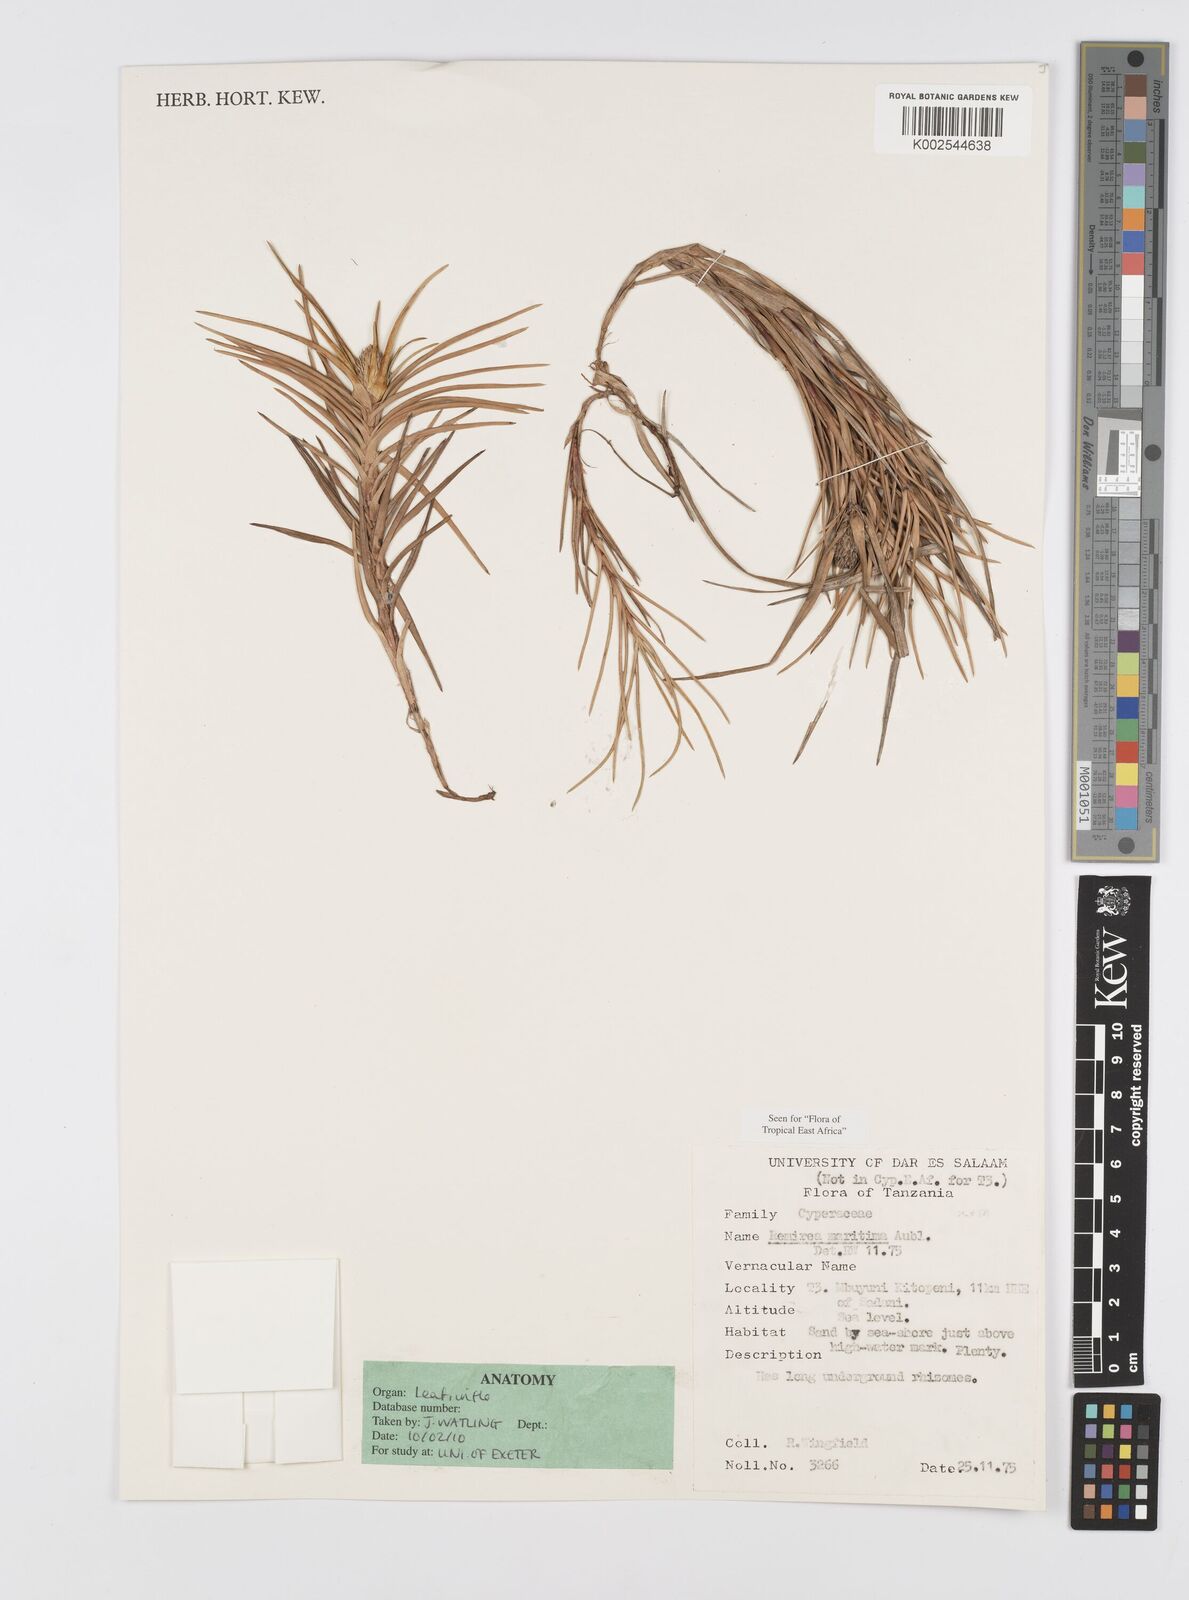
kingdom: Plantae
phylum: Tracheophyta
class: Liliopsida
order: Poales
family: Cyperaceae
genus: Cyperus
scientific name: Cyperus
